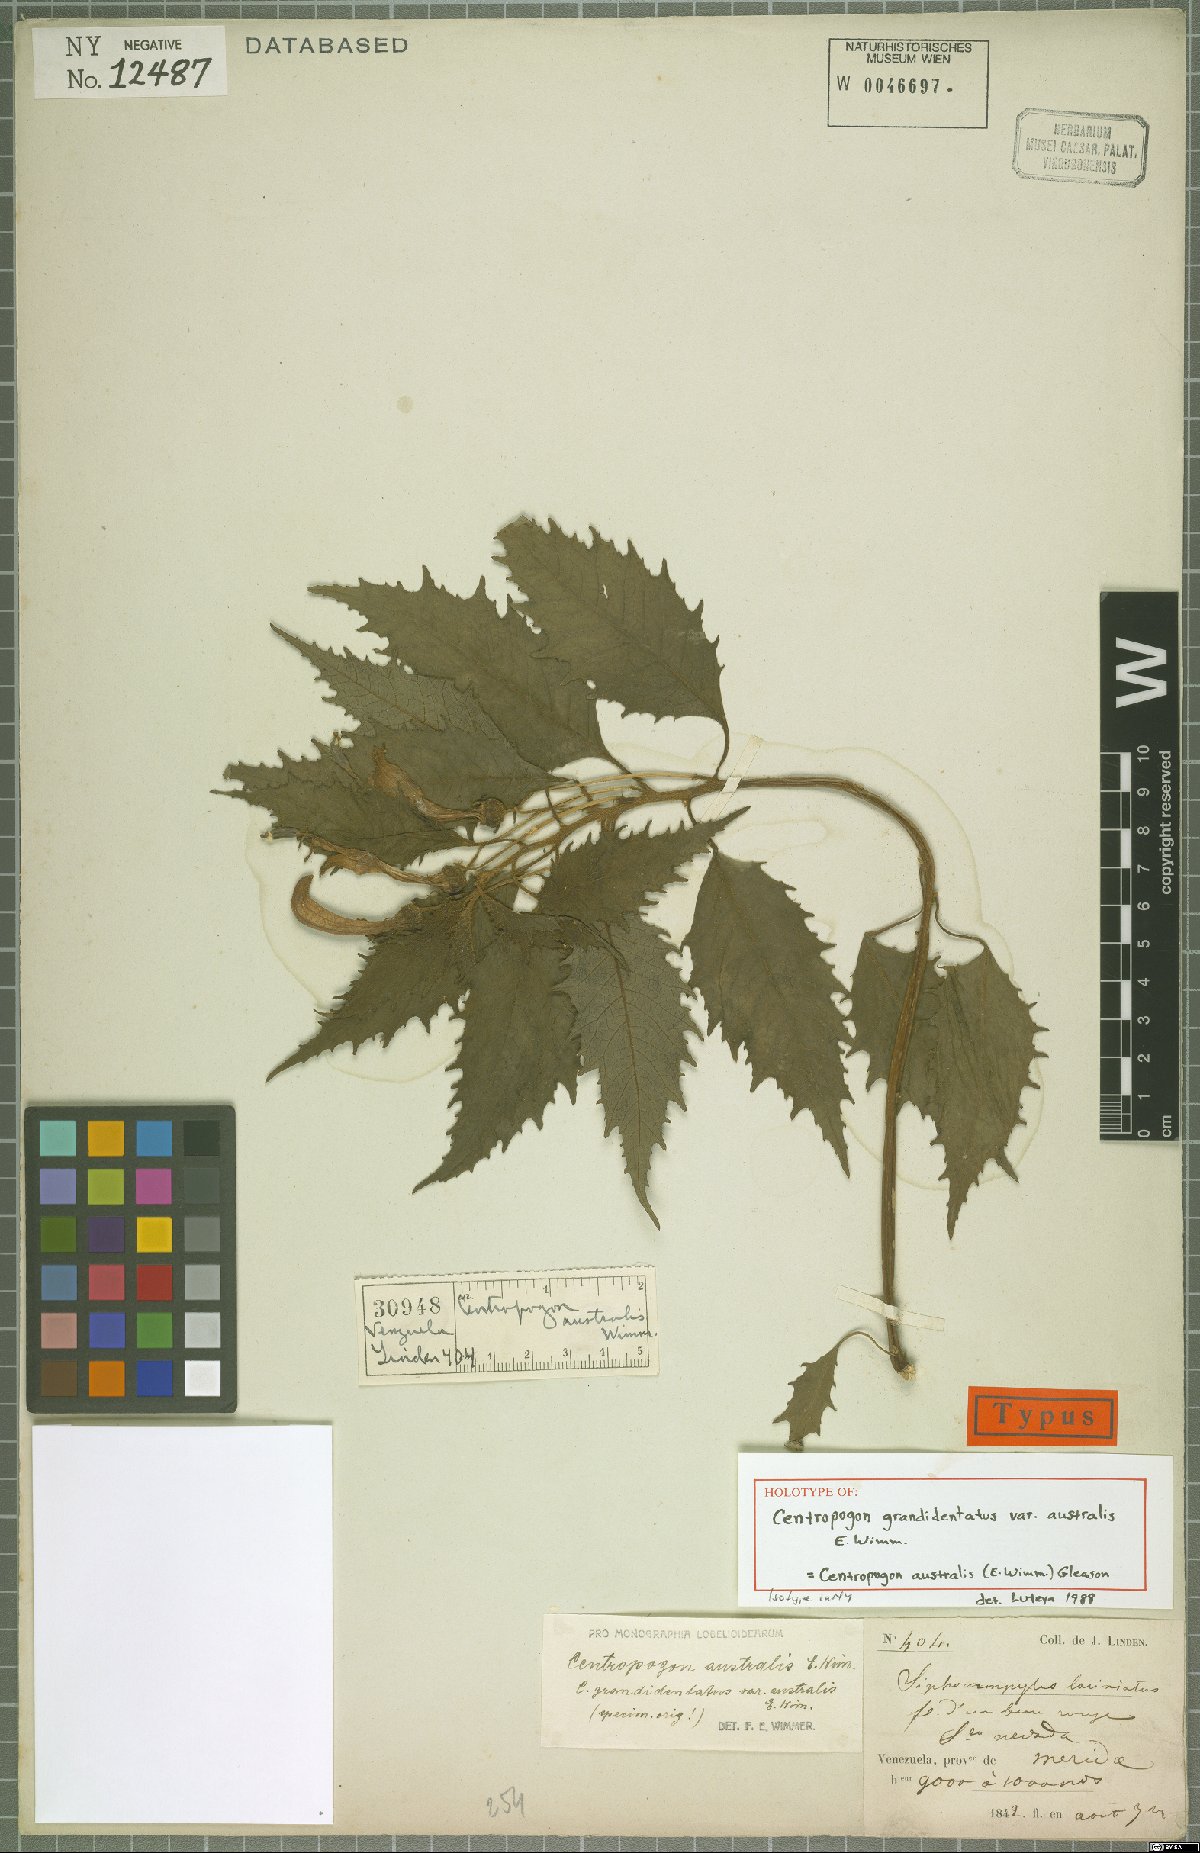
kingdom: Plantae
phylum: Tracheophyta
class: Magnoliopsida
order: Asterales
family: Campanulaceae
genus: Centropogon
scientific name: Centropogon australis
